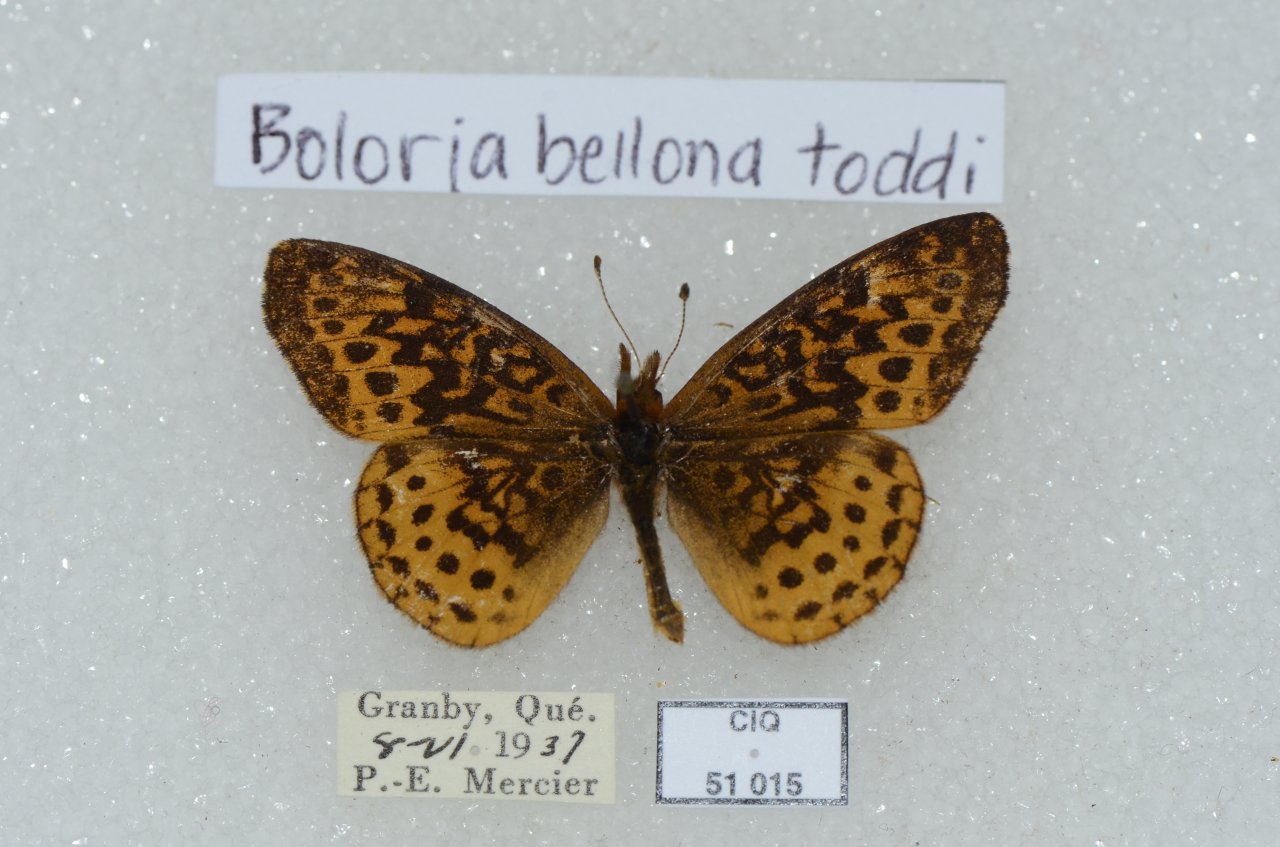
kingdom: Animalia
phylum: Arthropoda
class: Insecta
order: Lepidoptera
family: Nymphalidae
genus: Clossiana
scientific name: Clossiana toddi
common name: Meadow Fritillary
